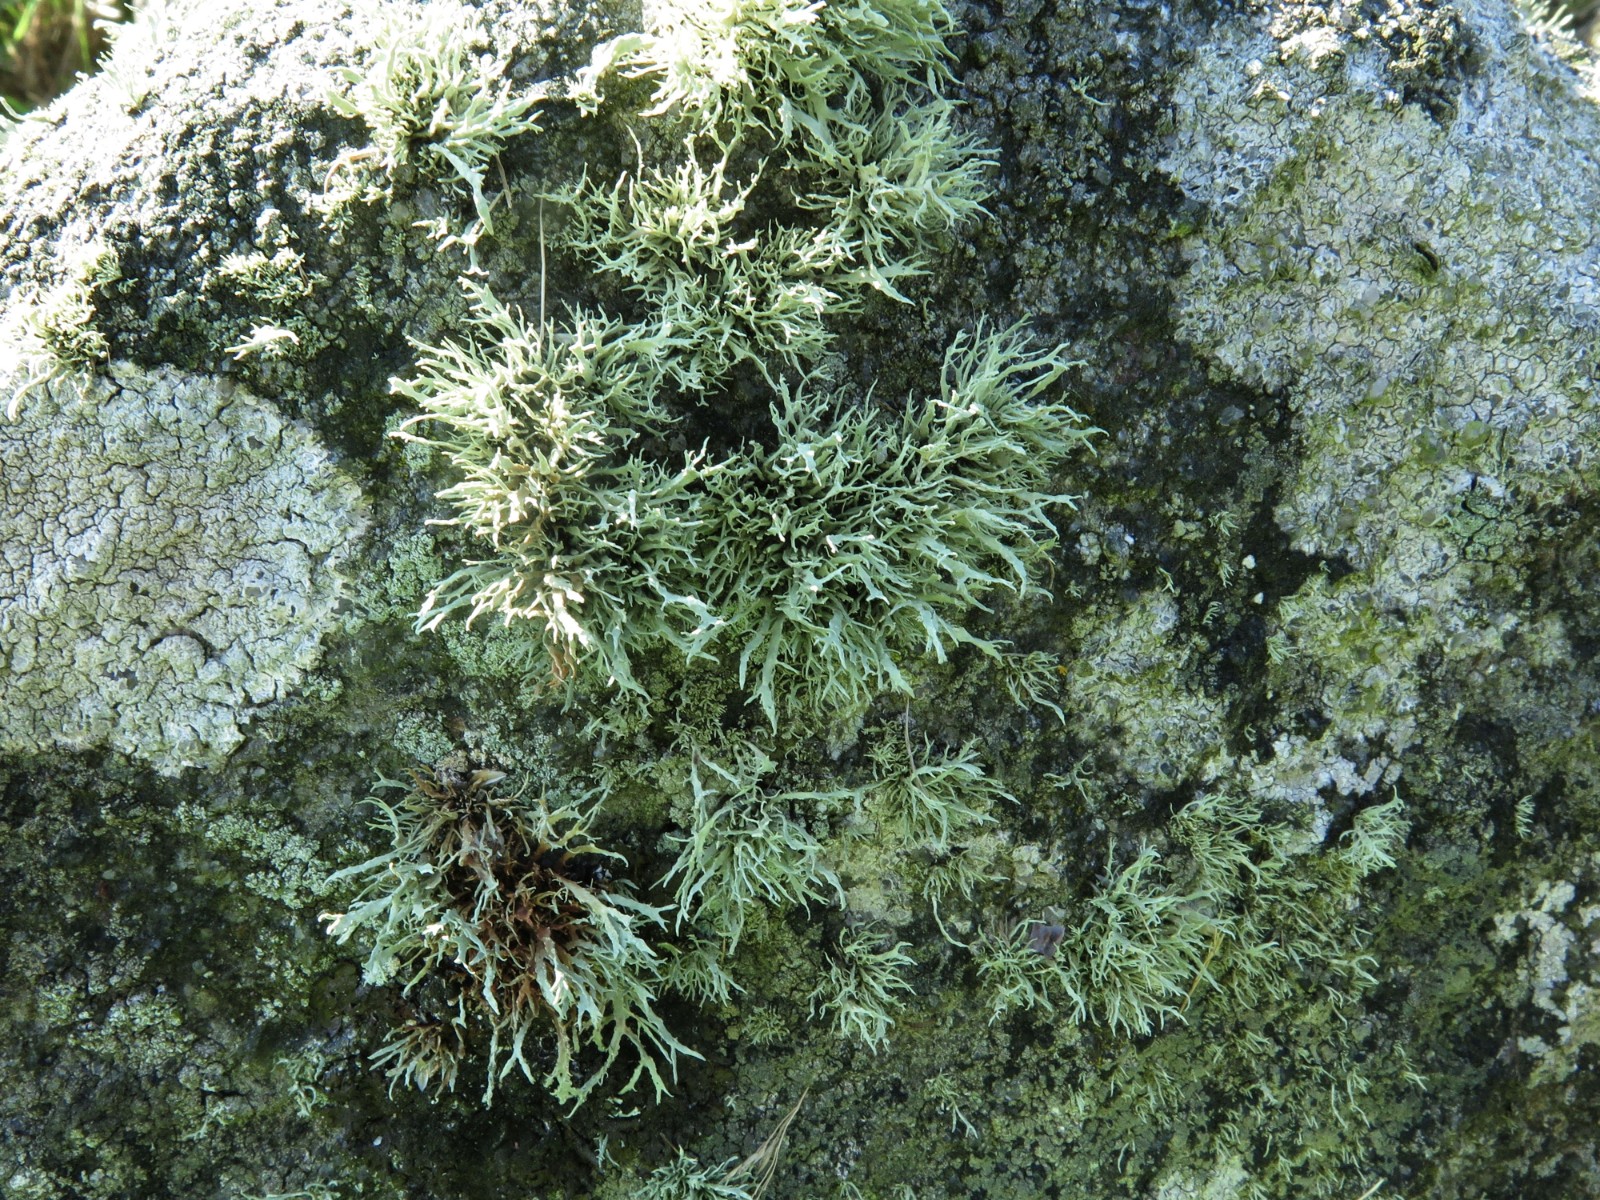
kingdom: Fungi
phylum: Ascomycota
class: Lecanoromycetes
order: Lecanorales
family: Ramalinaceae
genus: Ramalina
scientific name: Ramalina subfarinacea
